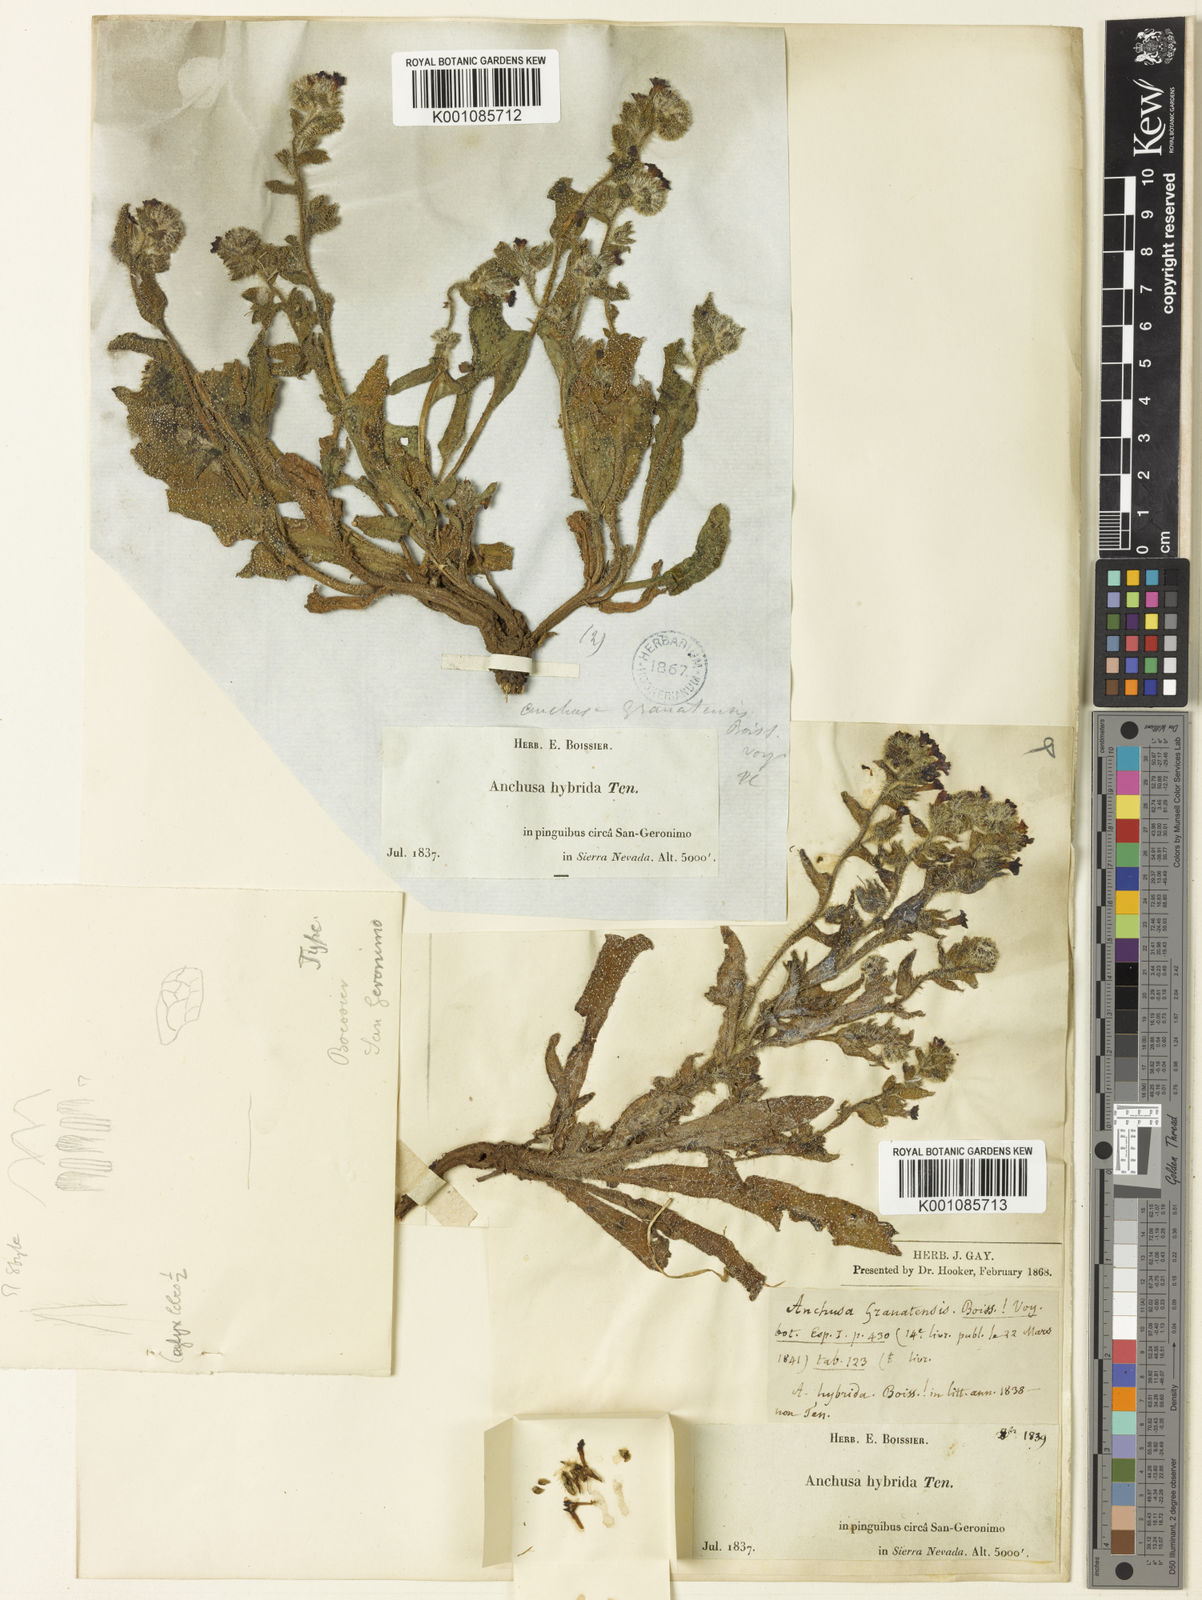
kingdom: Plantae
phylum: Tracheophyta
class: Magnoliopsida
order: Boraginales
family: Boraginaceae
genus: Anchusa
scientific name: Anchusa undulata
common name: Undulate alkanet
